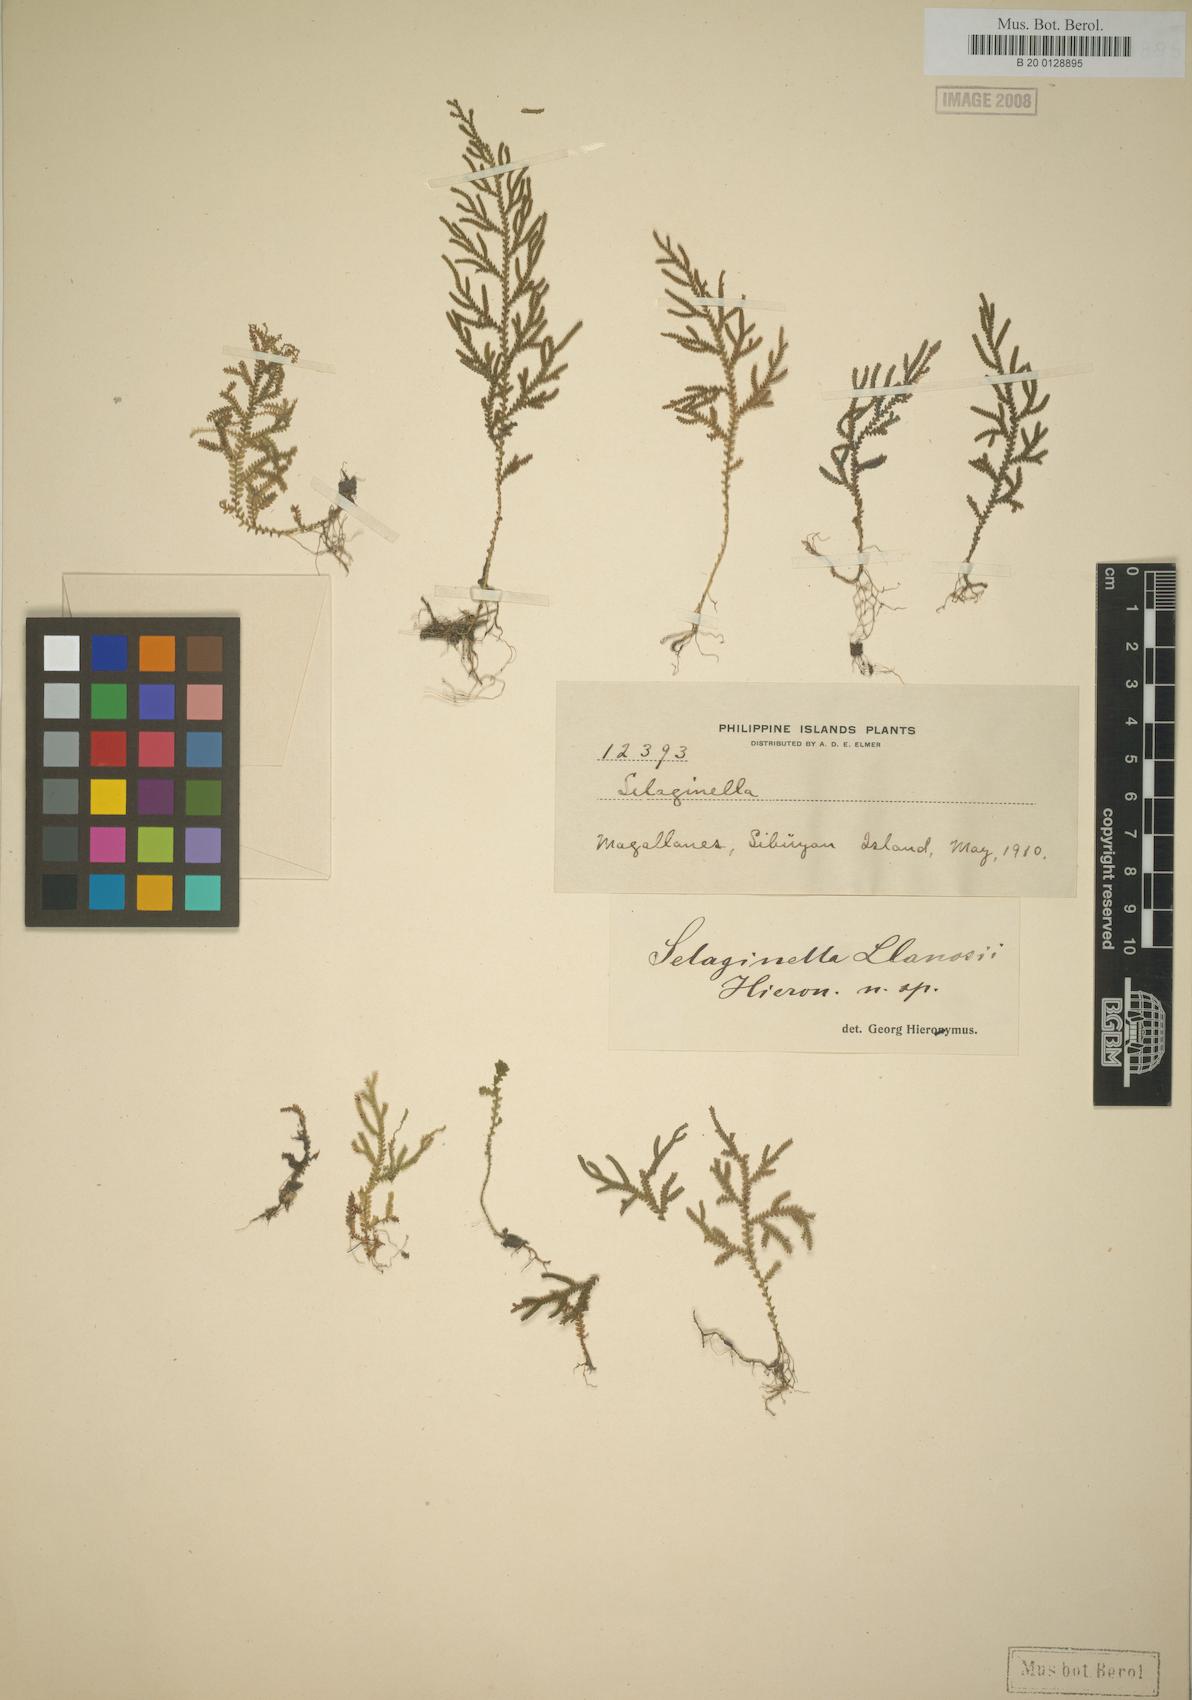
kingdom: Plantae
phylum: Tracheophyta
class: Lycopodiopsida
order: Selaginellales
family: Selaginellaceae
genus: Selaginella
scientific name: Selaginella llanosii
